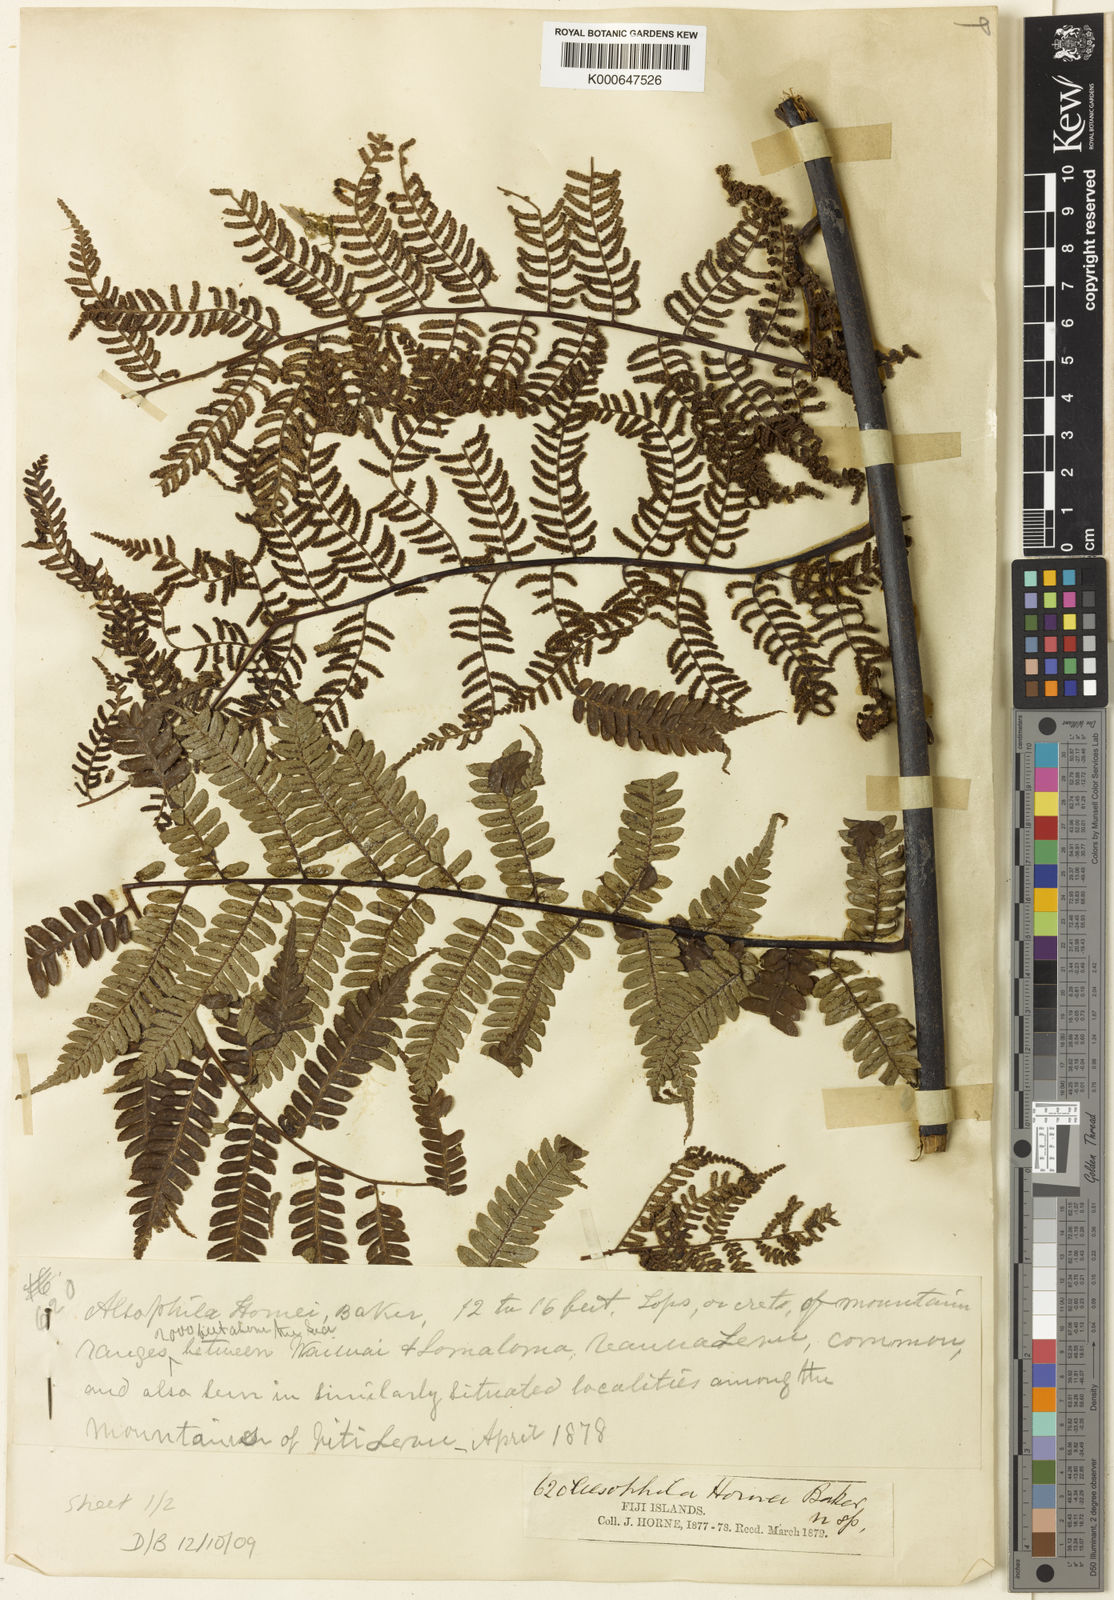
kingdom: Plantae
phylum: Tracheophyta
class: Polypodiopsida
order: Cyatheales
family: Cyatheaceae
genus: Gymnosphaera
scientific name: Gymnosphaera hornei
